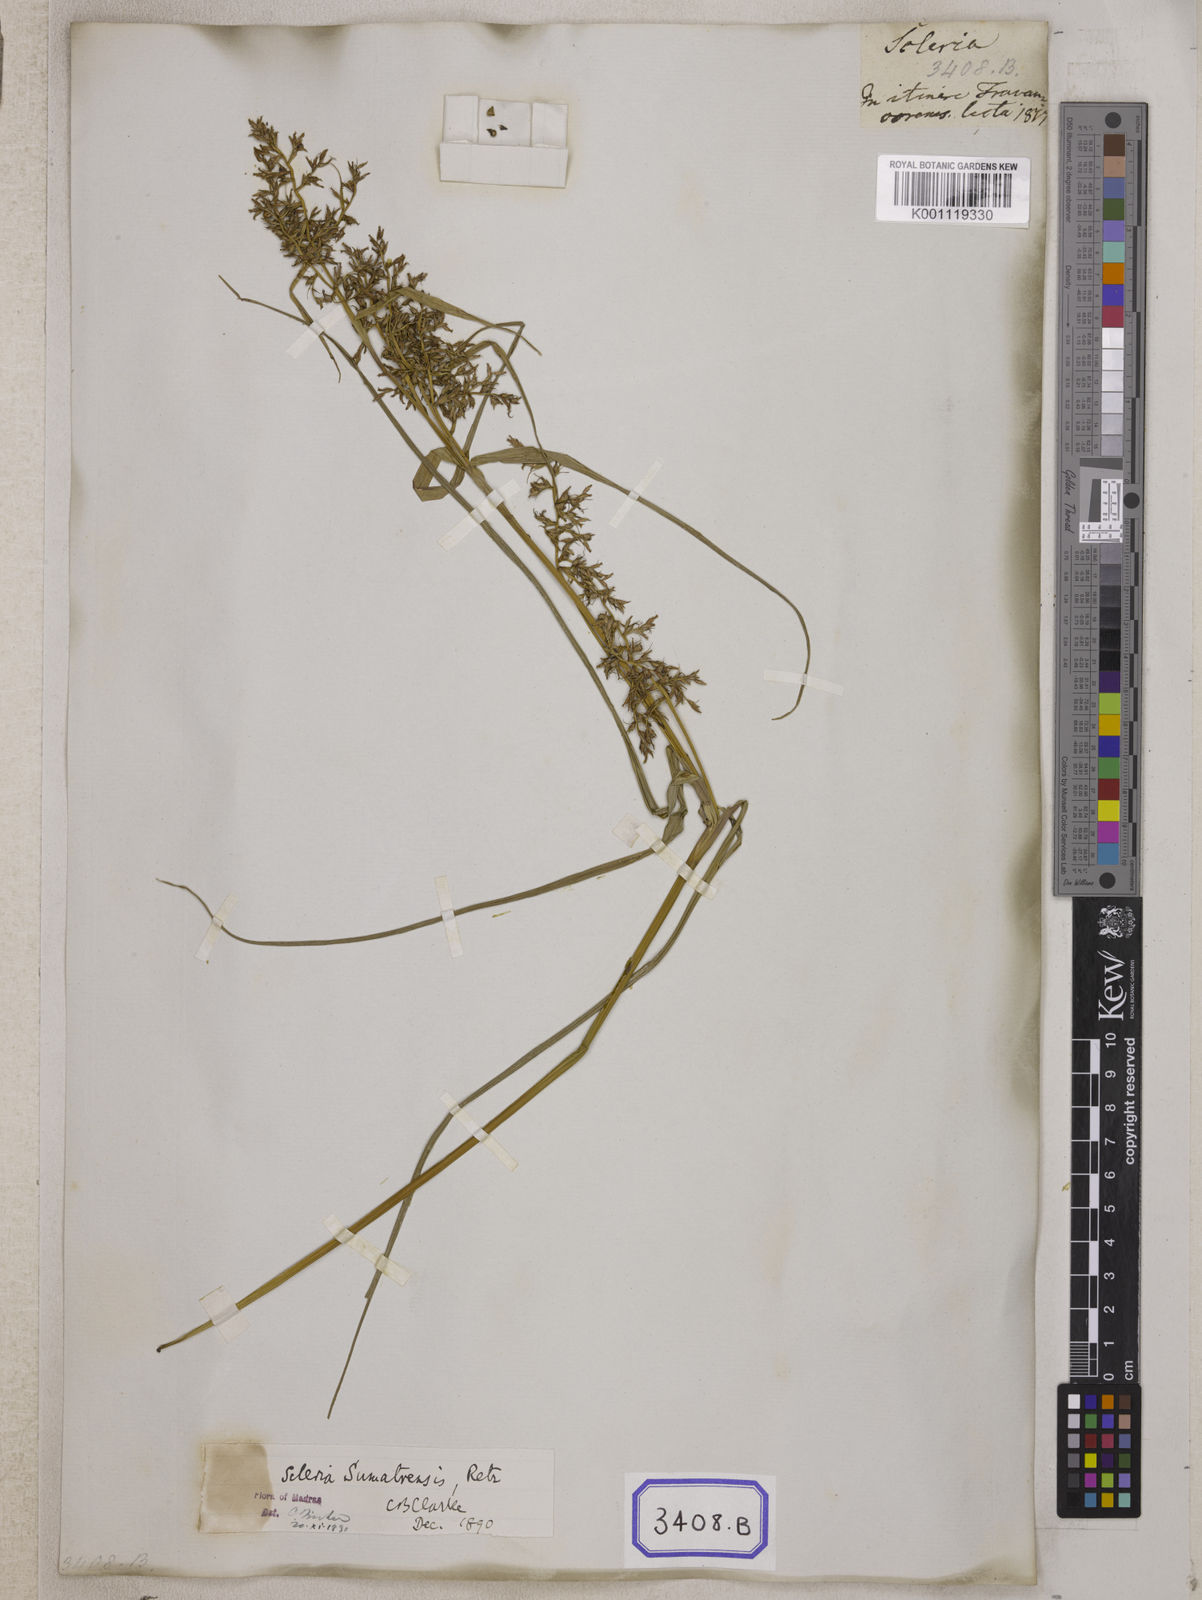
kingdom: Plantae
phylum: Tracheophyta
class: Liliopsida
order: Poales
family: Cyperaceae
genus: Scleria
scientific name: Scleria
